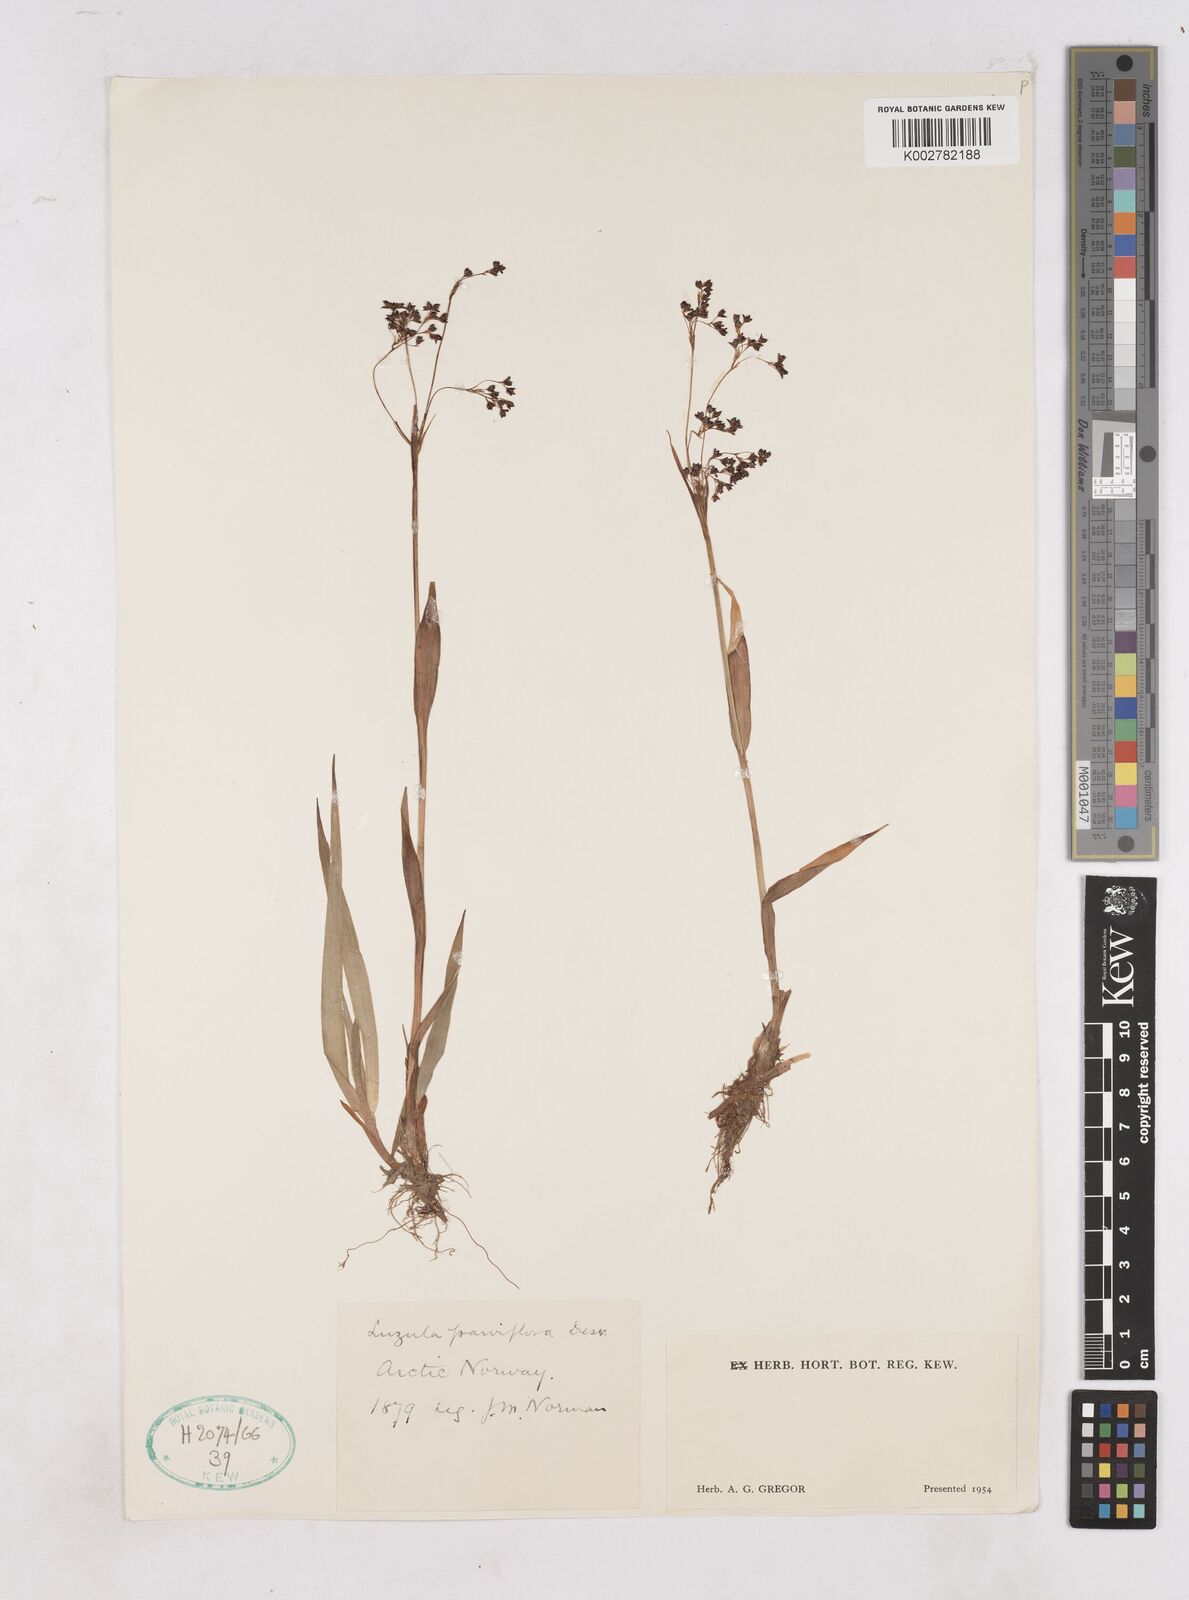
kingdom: Plantae
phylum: Tracheophyta
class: Liliopsida
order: Poales
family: Juncaceae
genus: Luzula
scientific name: Luzula parviflora
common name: Millet woodrush
